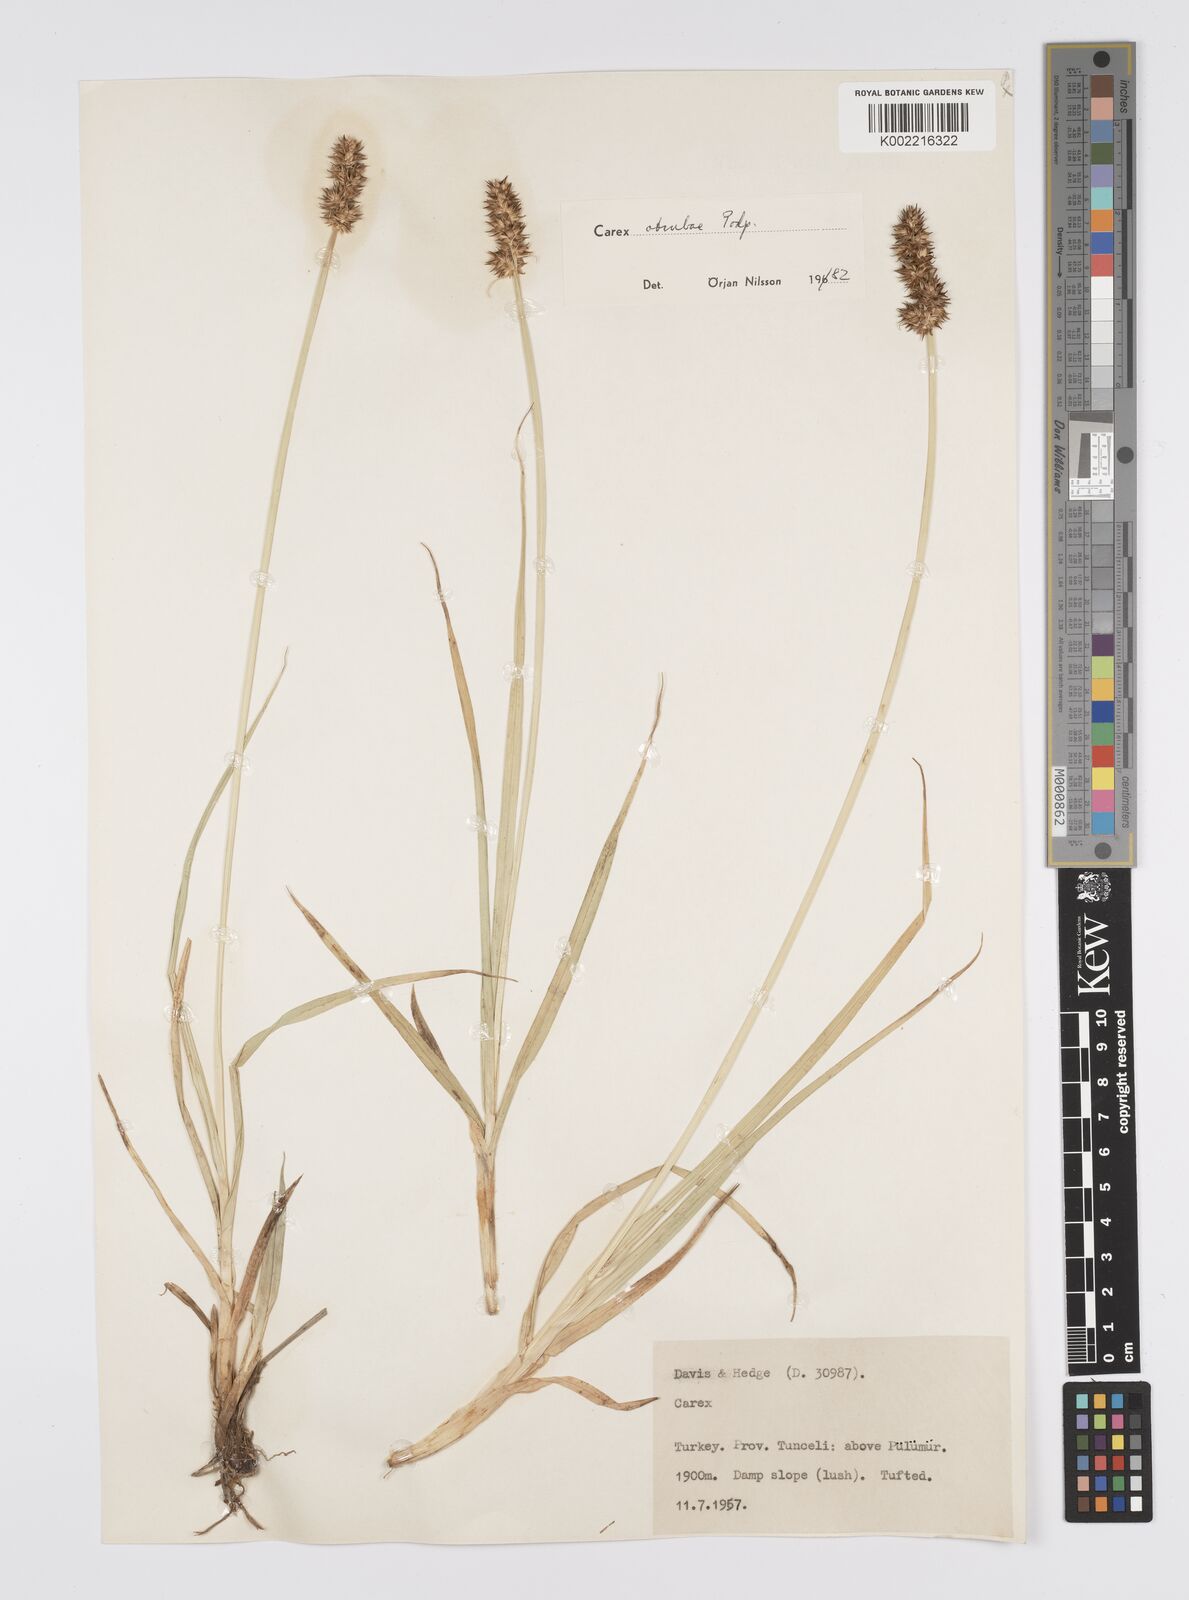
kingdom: Plantae
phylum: Tracheophyta
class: Liliopsida
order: Poales
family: Cyperaceae
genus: Carex
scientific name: Carex otrubae
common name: False fox-sedge
